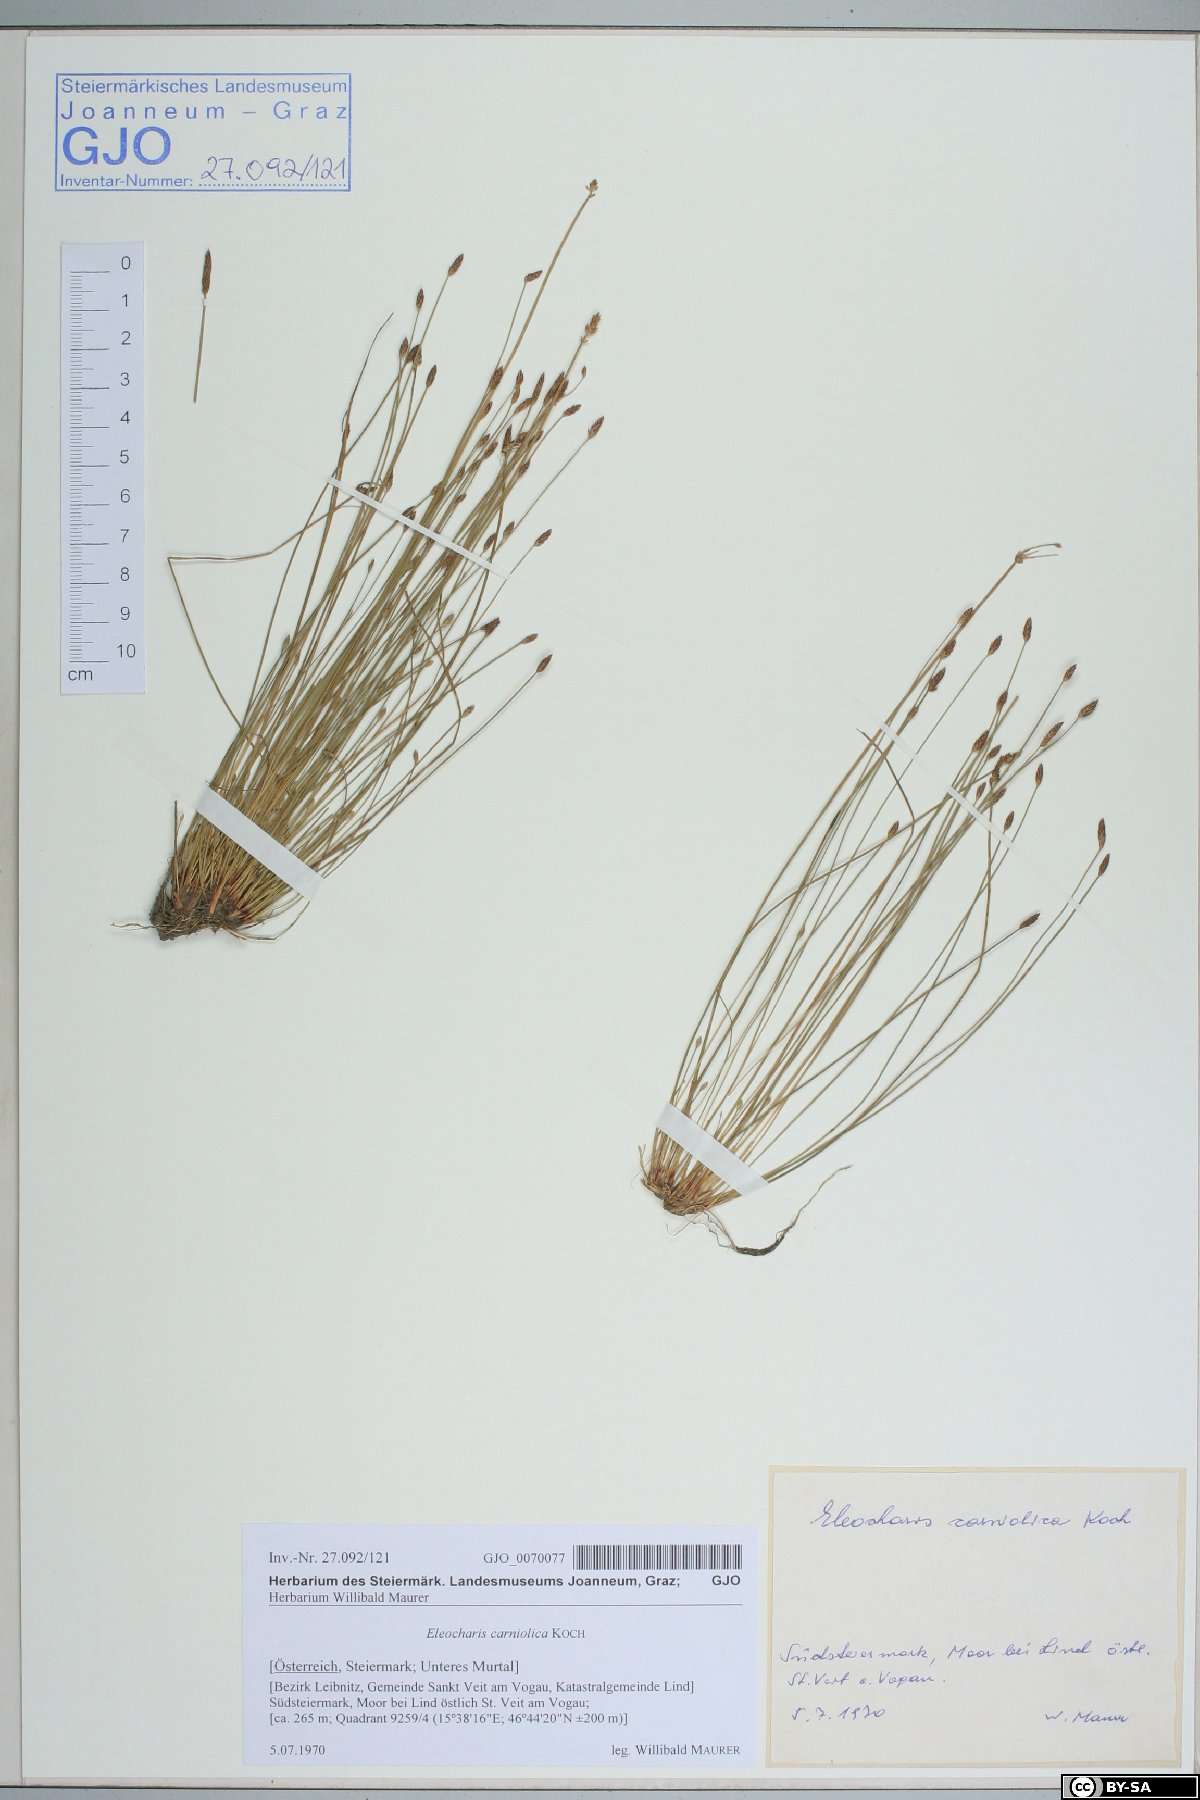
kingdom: Plantae
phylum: Tracheophyta
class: Liliopsida
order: Poales
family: Cyperaceae
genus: Eleocharis
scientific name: Eleocharis carniolica
